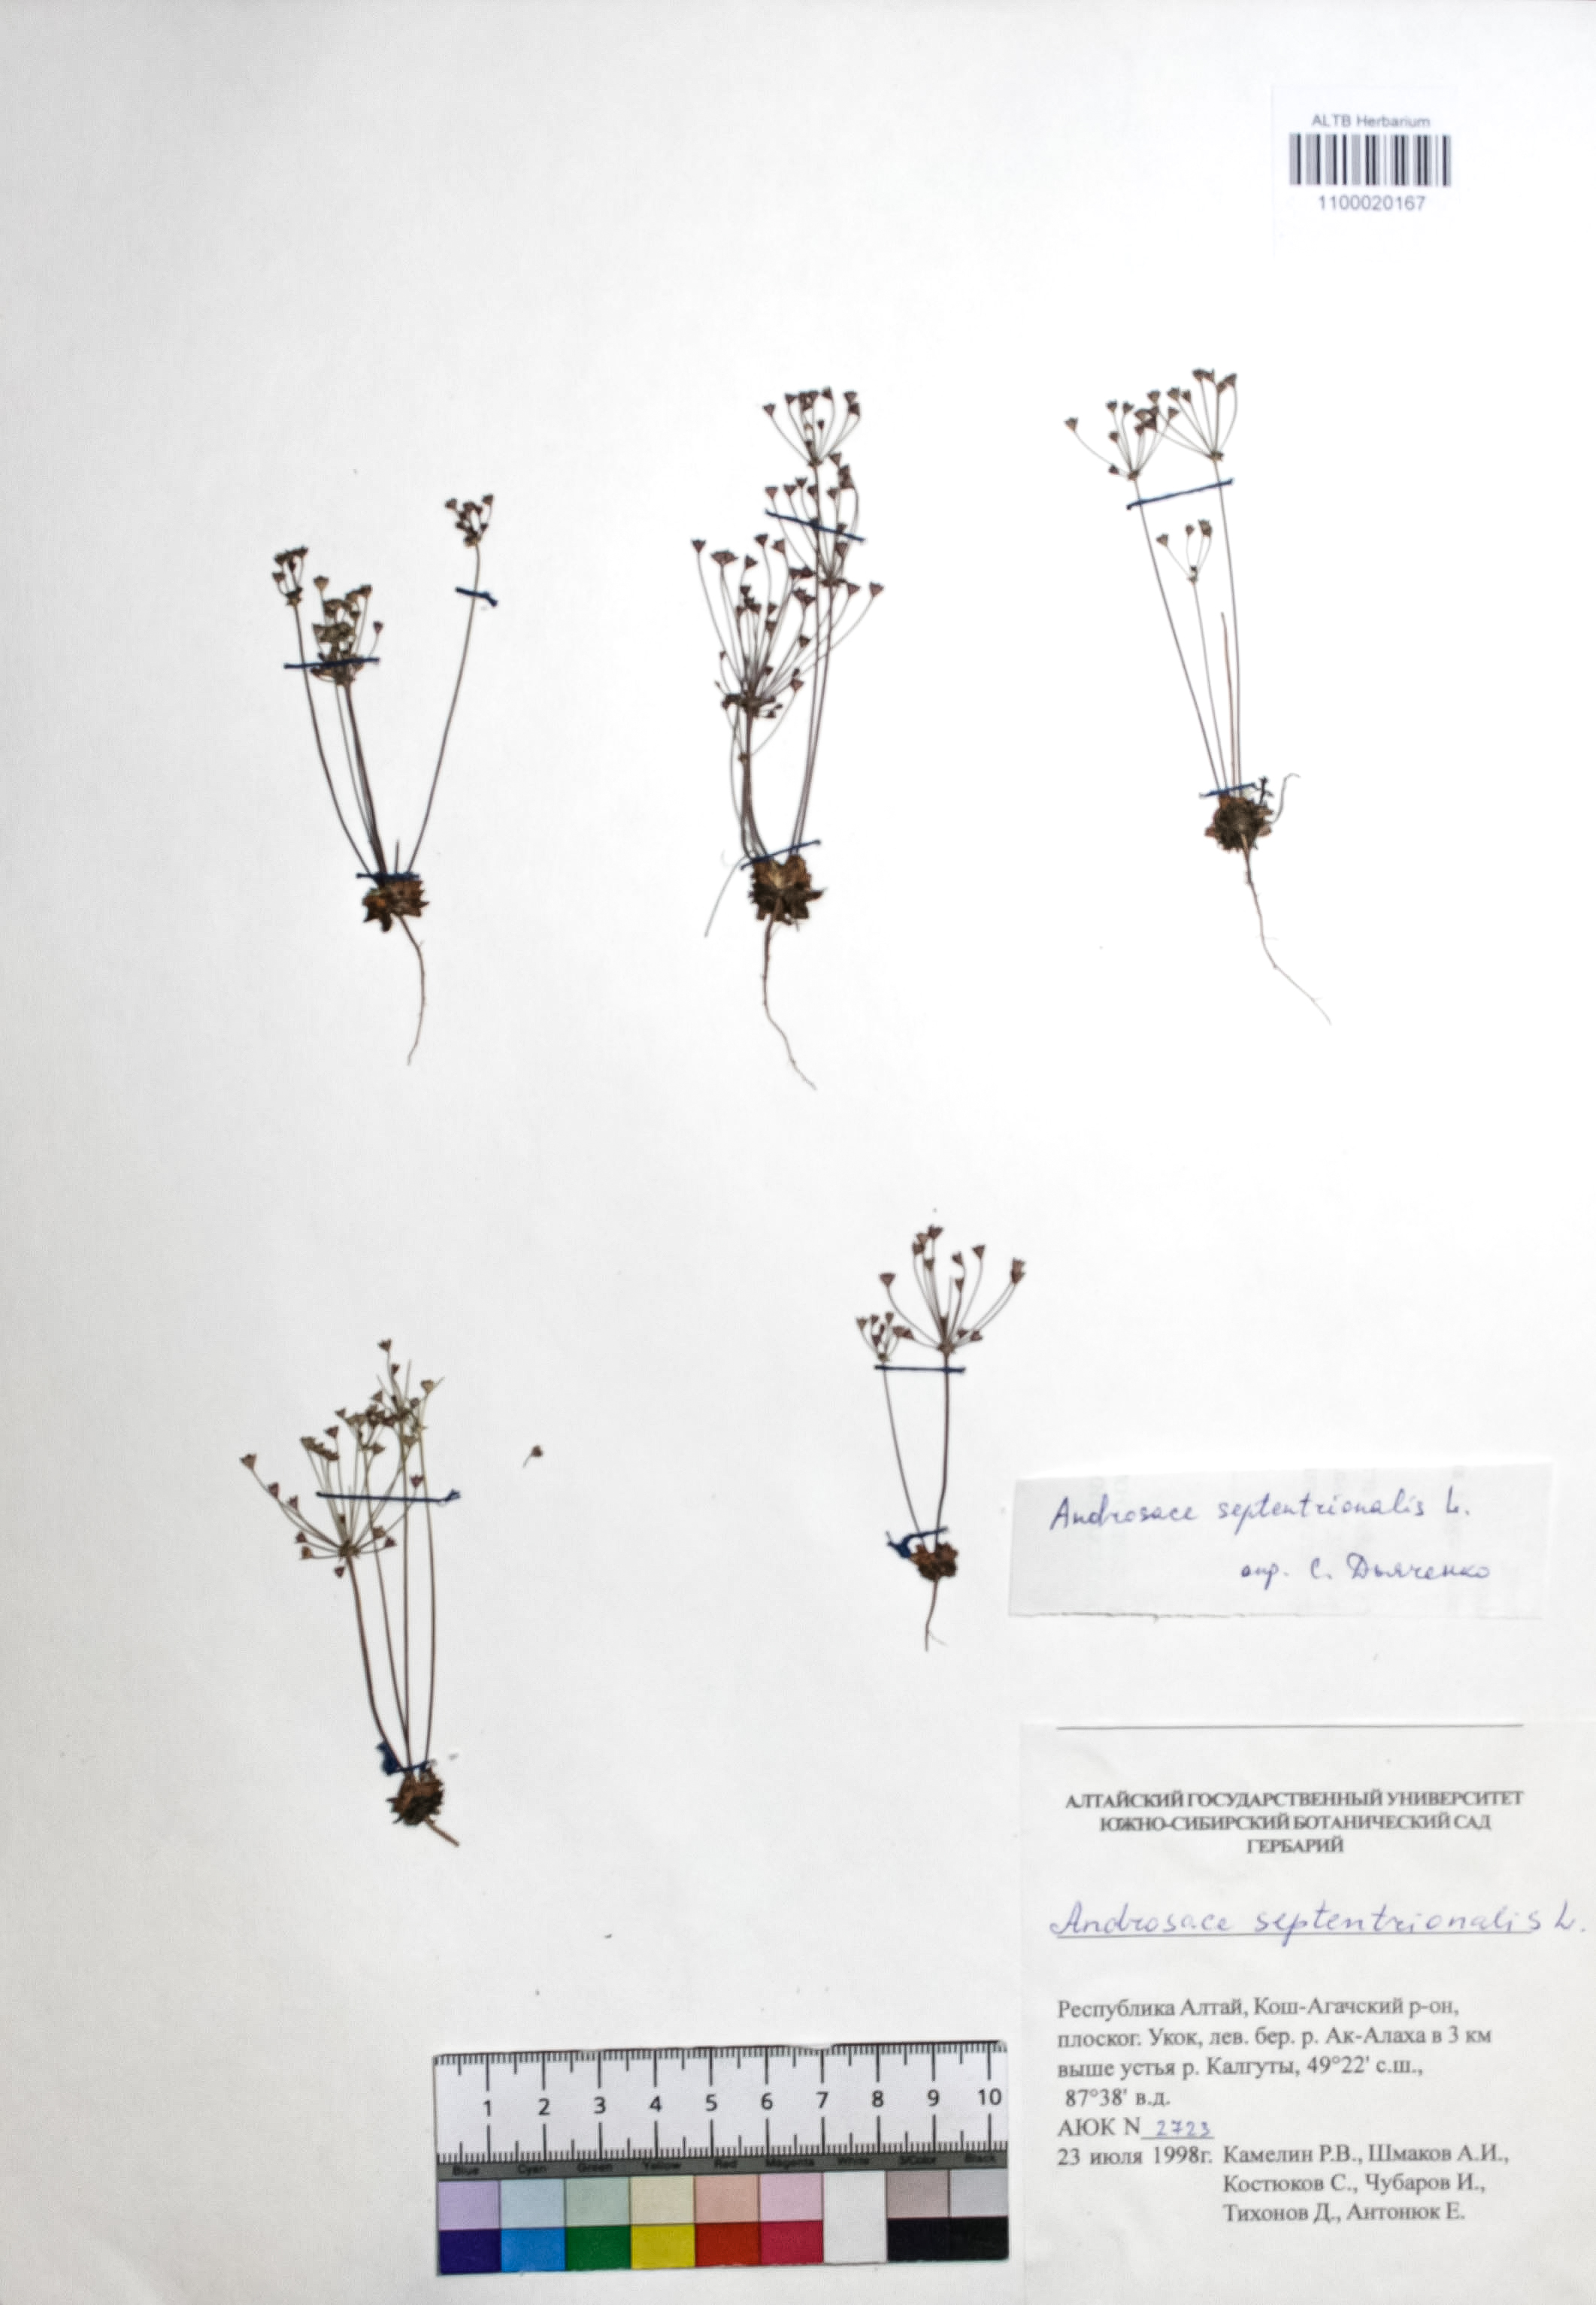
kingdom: Plantae
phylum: Tracheophyta
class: Magnoliopsida
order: Ericales
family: Primulaceae
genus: Androsace
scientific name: Androsace septentrionalis
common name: Hairy northern fairy-candelabra
